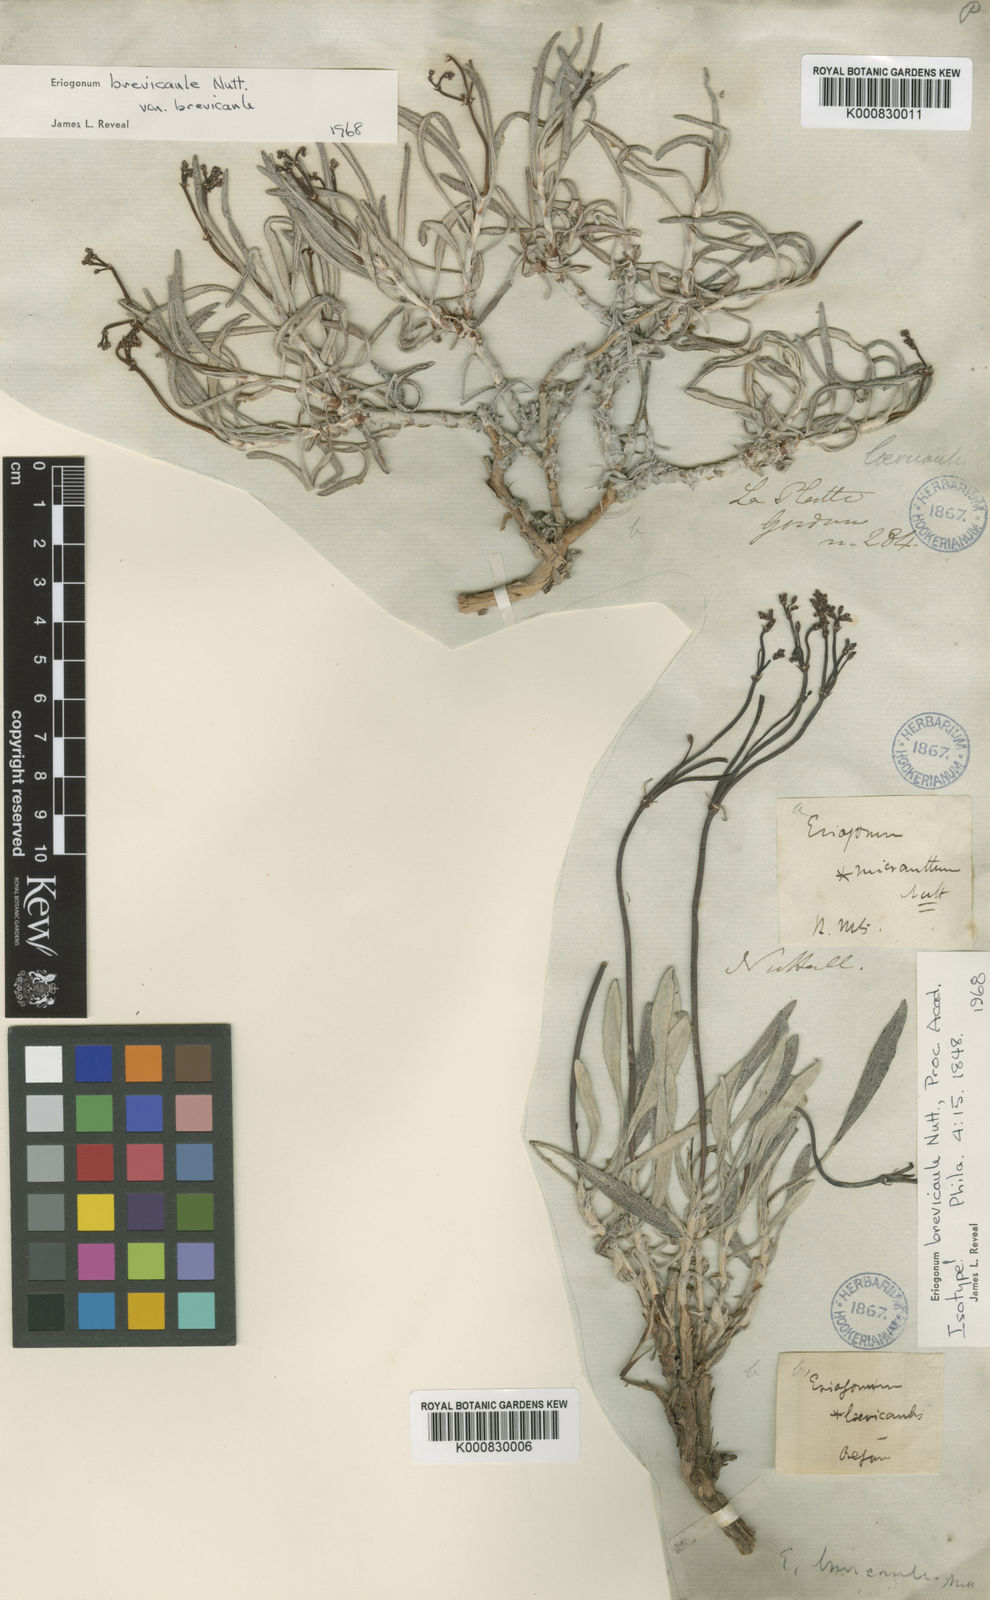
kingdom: Plantae
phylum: Tracheophyta
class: Magnoliopsida
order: Caryophyllales
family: Polygonaceae
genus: Eriogonum
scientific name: Eriogonum brevicaule
